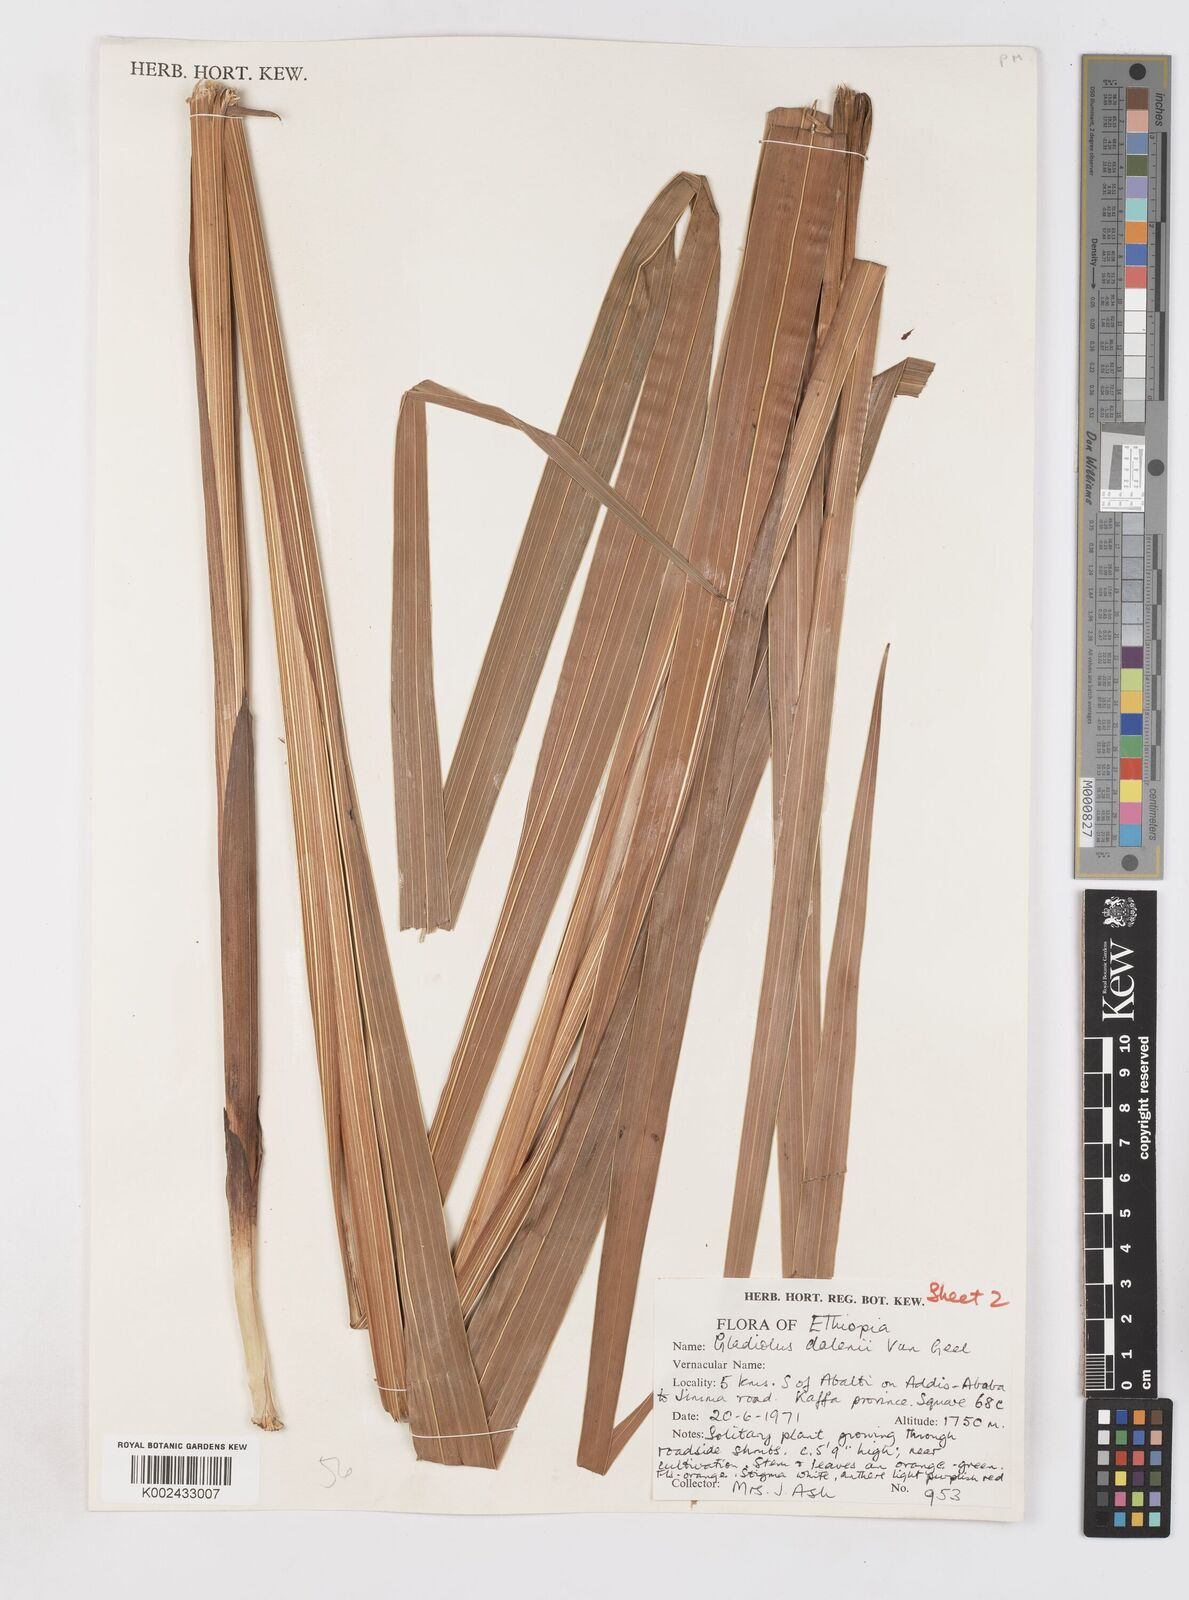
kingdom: Plantae
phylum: Tracheophyta
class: Liliopsida
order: Asparagales
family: Iridaceae
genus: Gladiolus
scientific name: Gladiolus dalenii
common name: Cornflag
